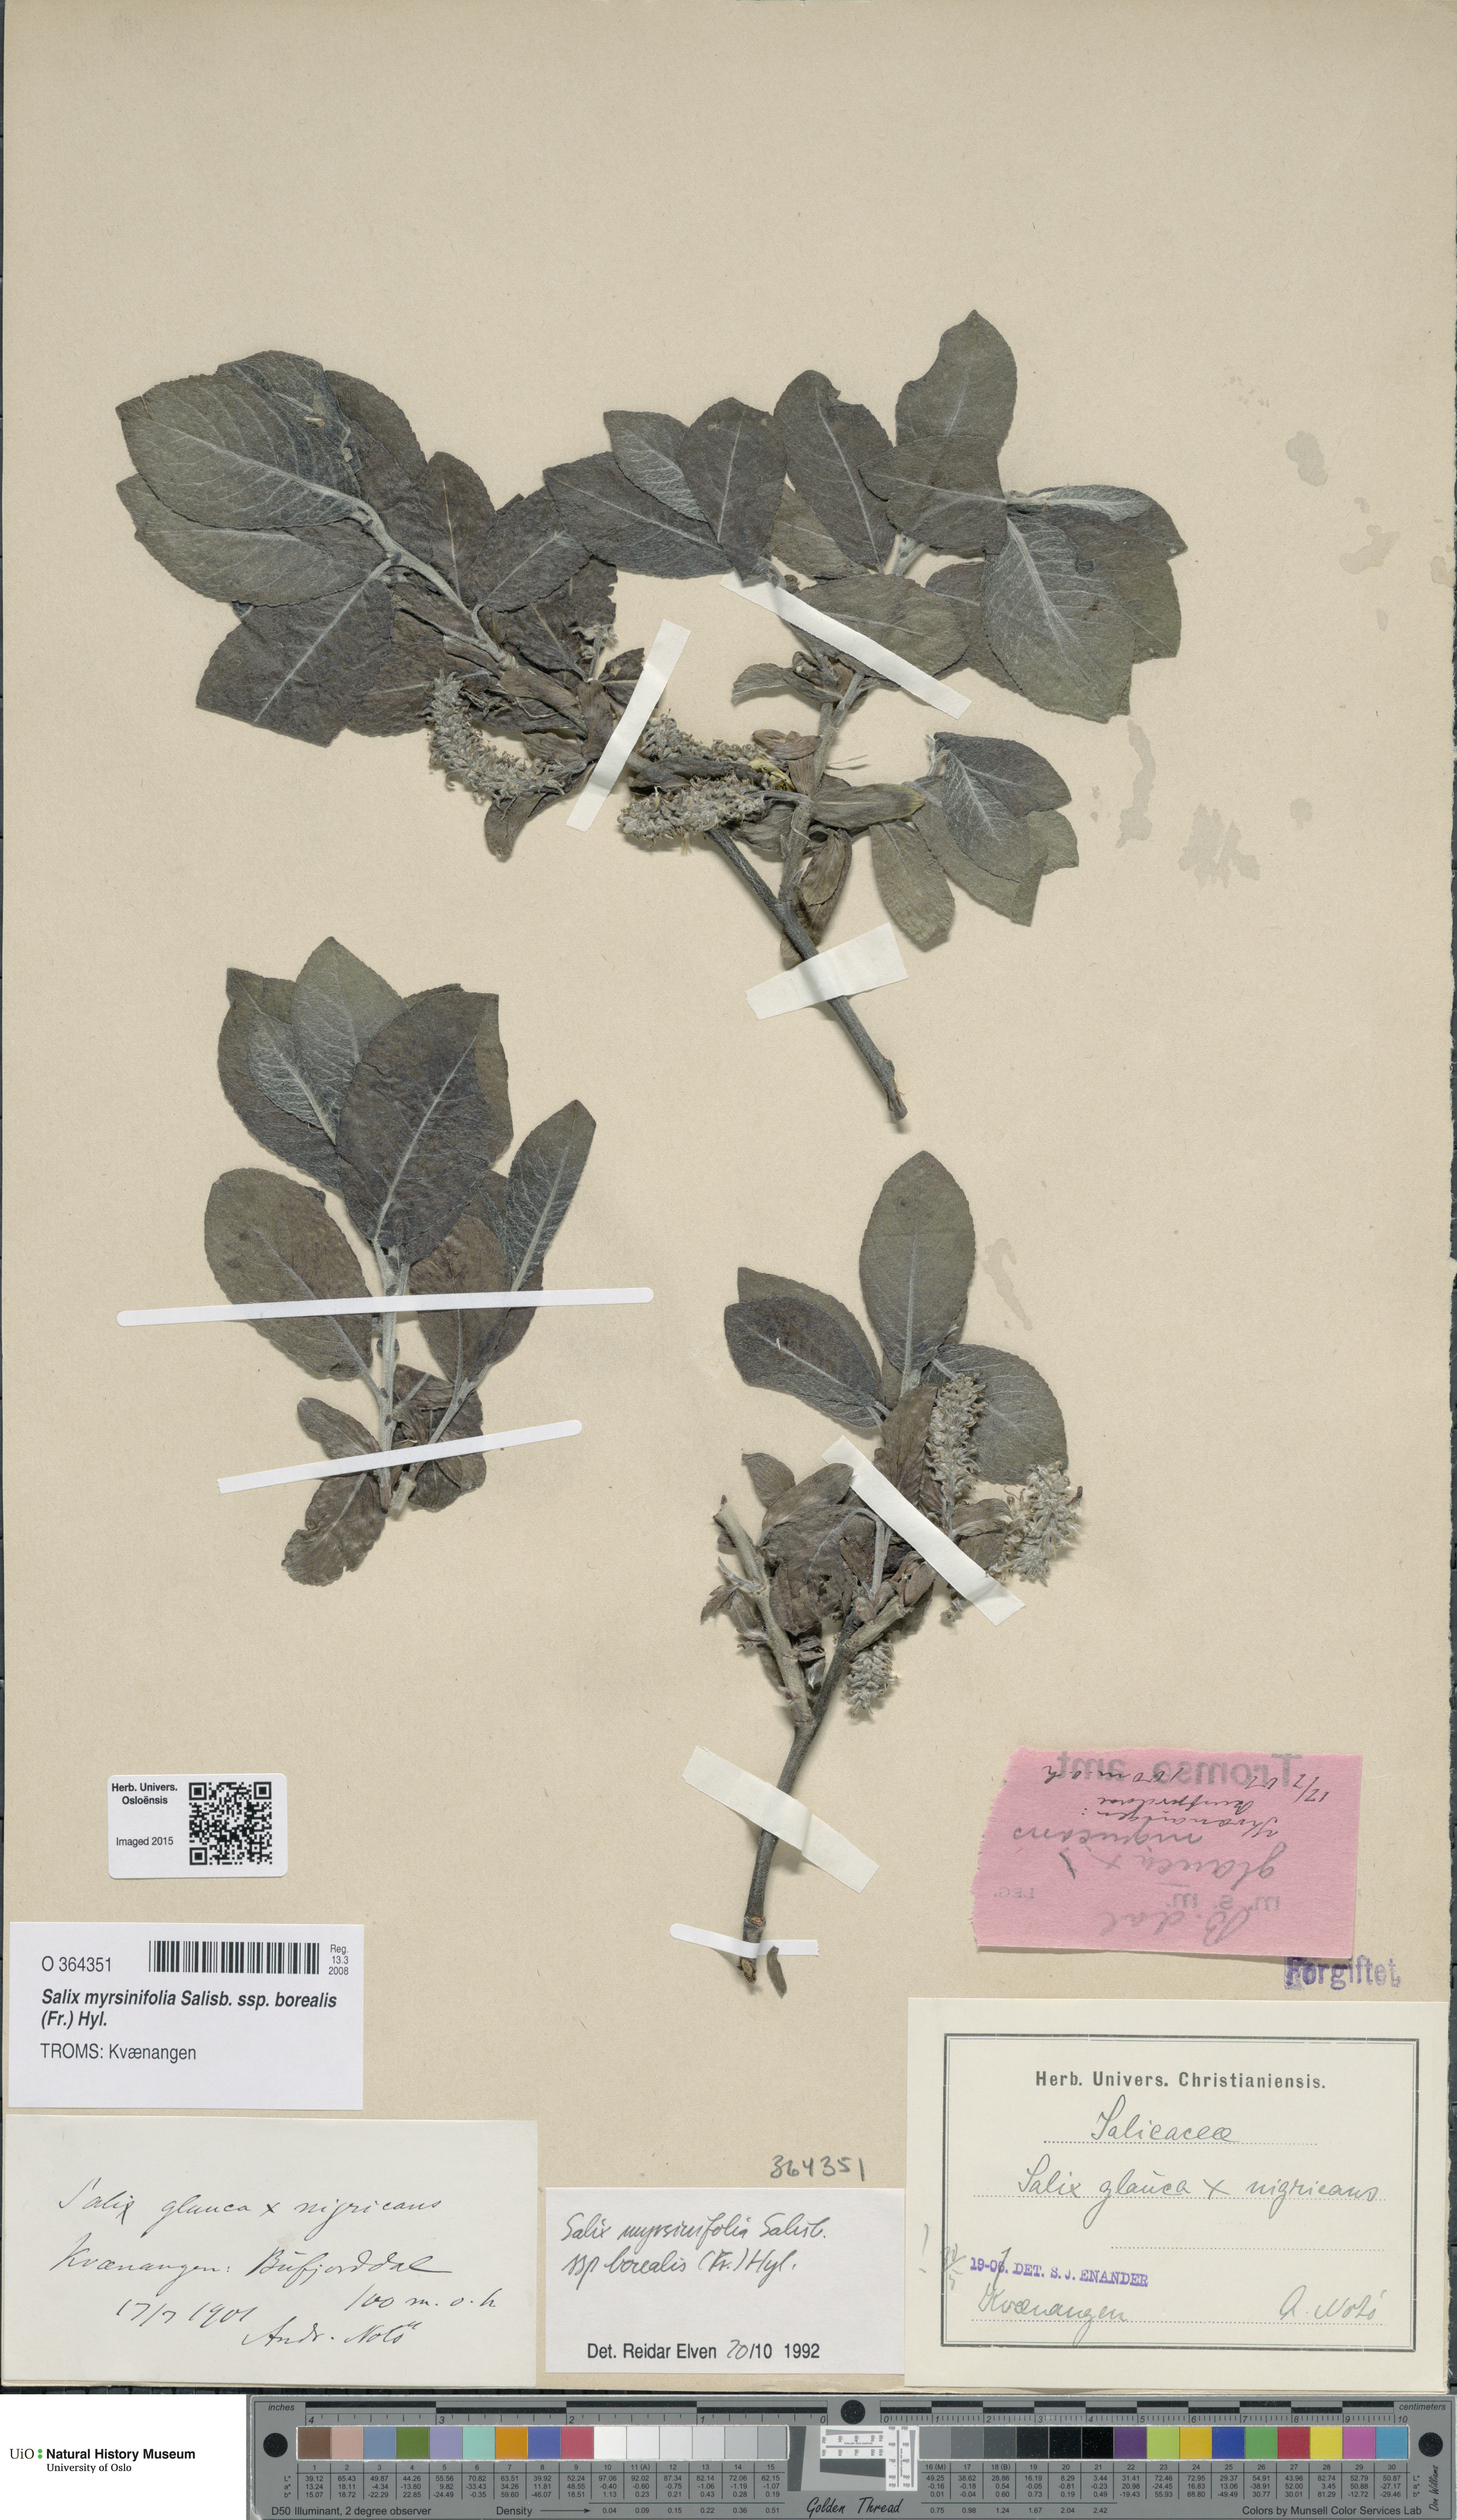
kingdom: Plantae
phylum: Tracheophyta
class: Magnoliopsida
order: Malpighiales
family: Salicaceae
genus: Salix
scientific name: Salix myrsinifolia
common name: Dark-leaved willow
